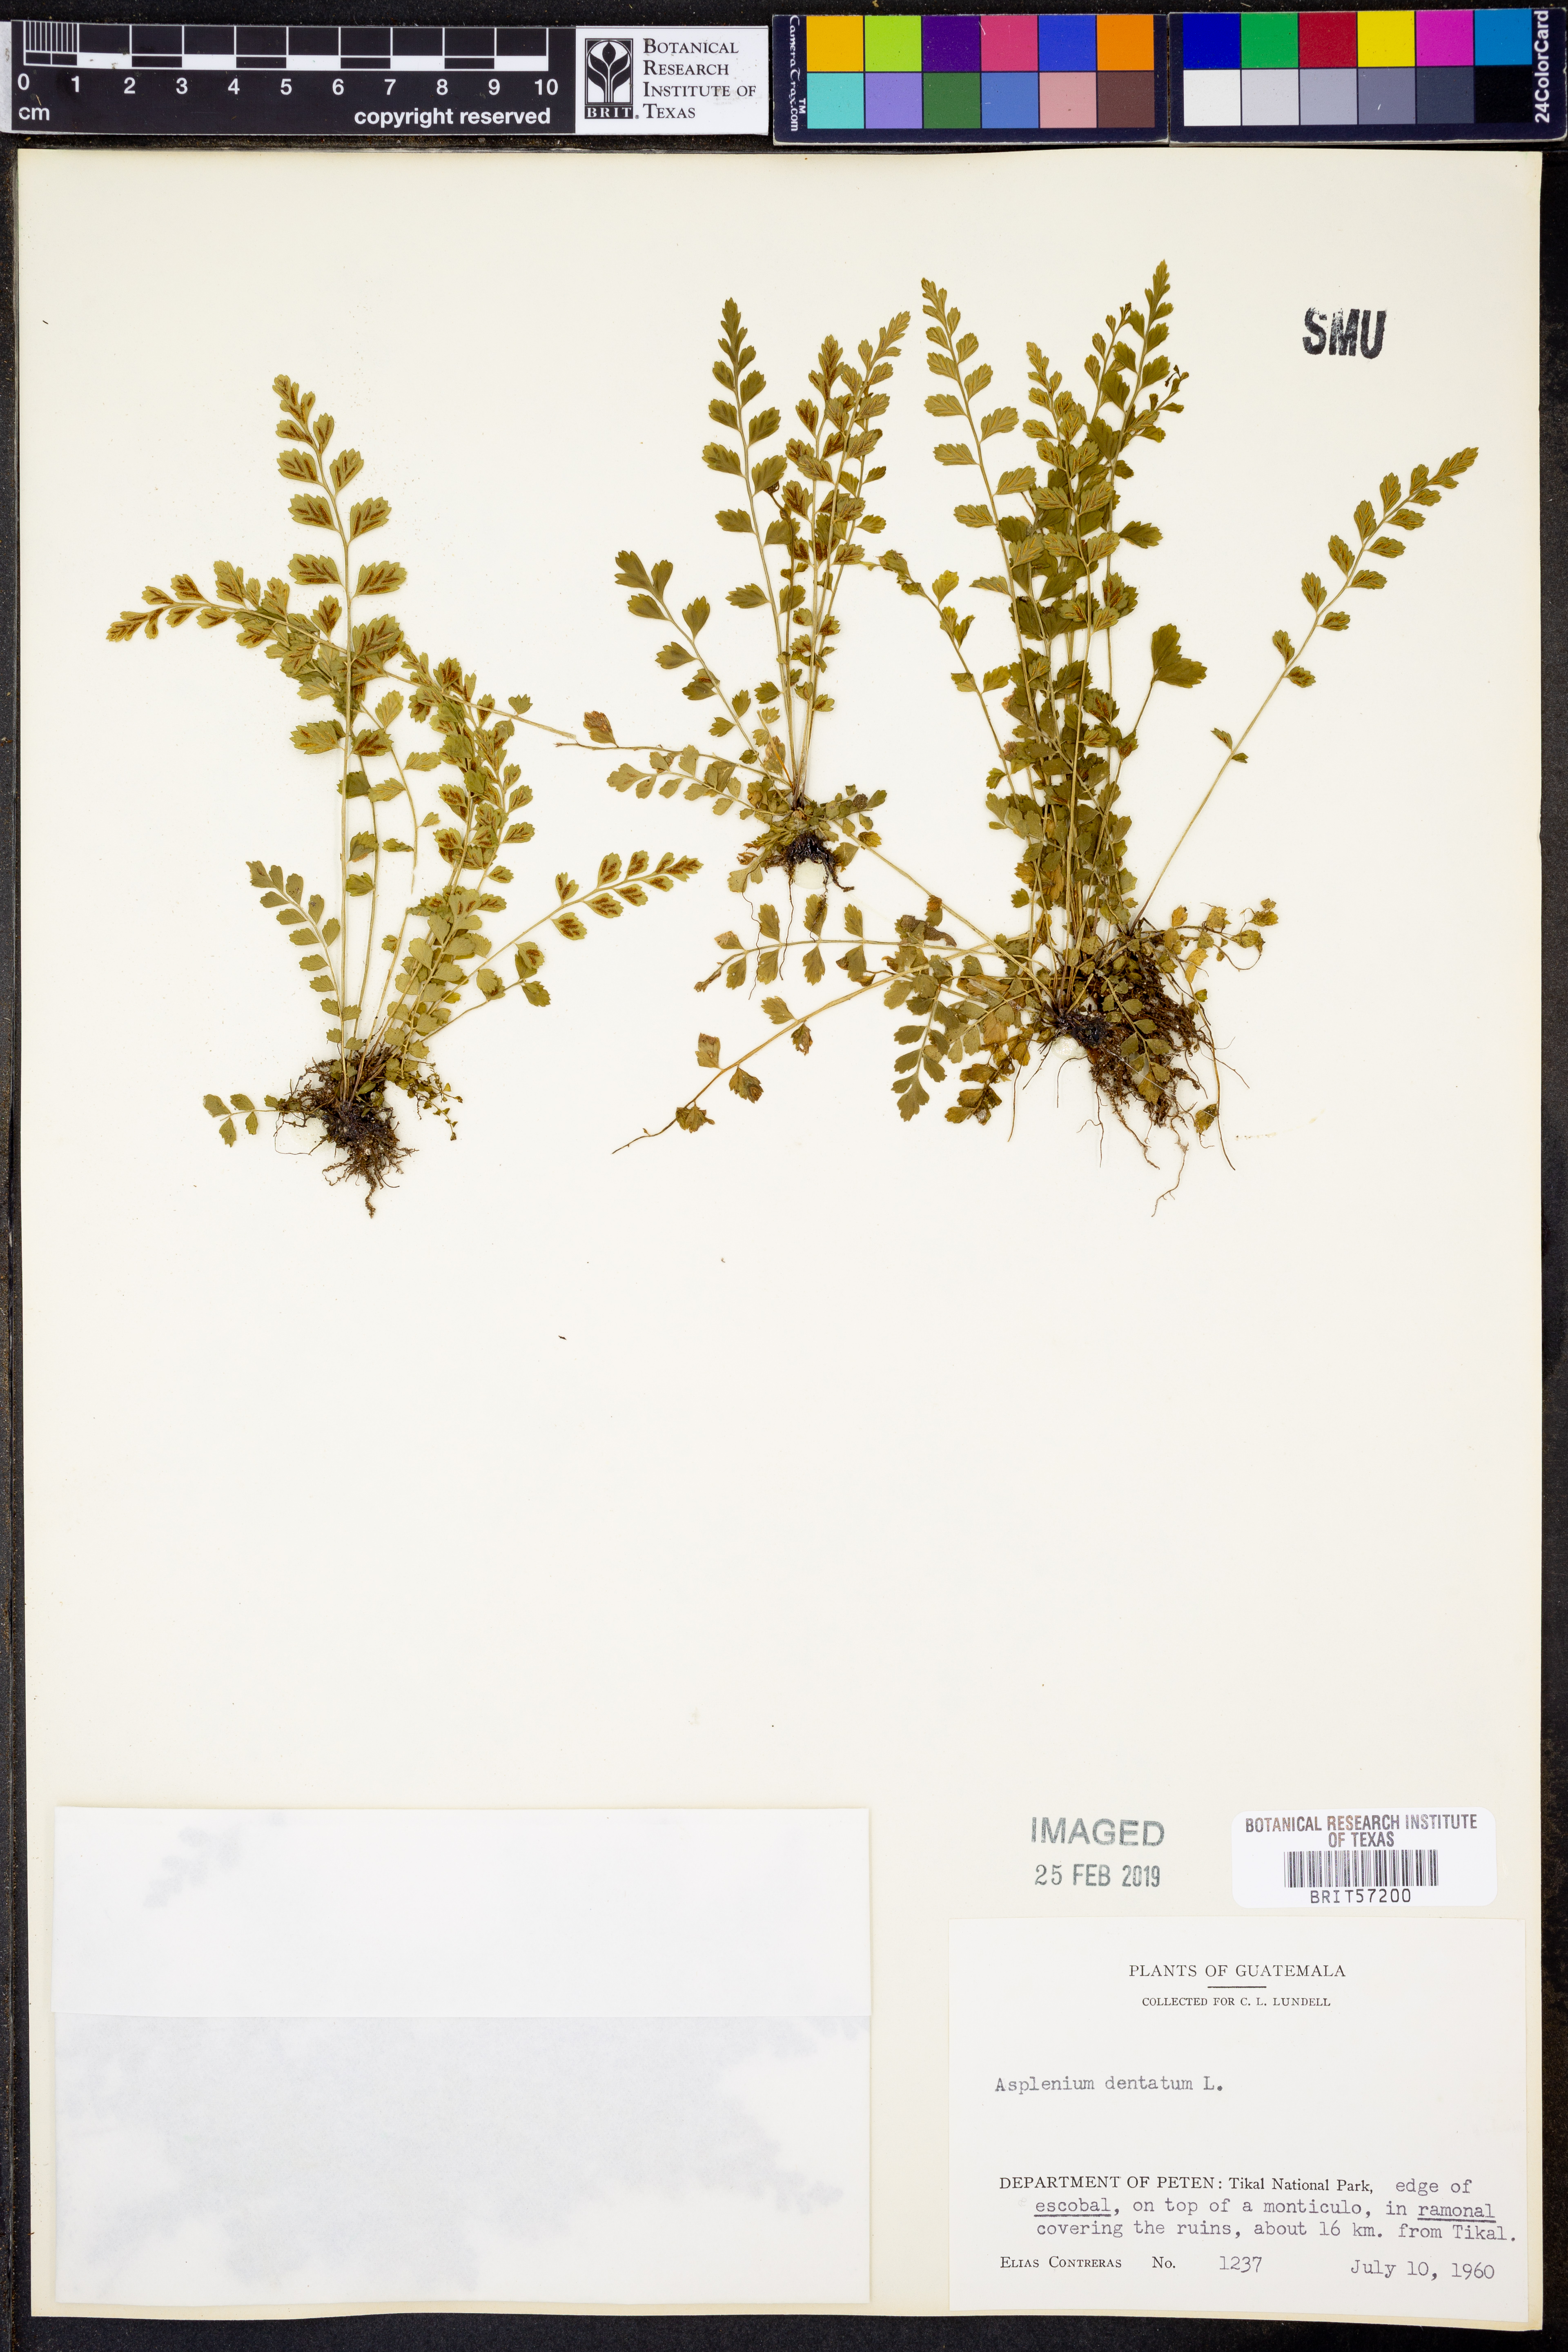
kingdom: Plantae
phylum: Tracheophyta
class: Polypodiopsida
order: Polypodiales
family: Aspleniaceae
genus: Asplenium
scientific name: Asplenium dentatum
